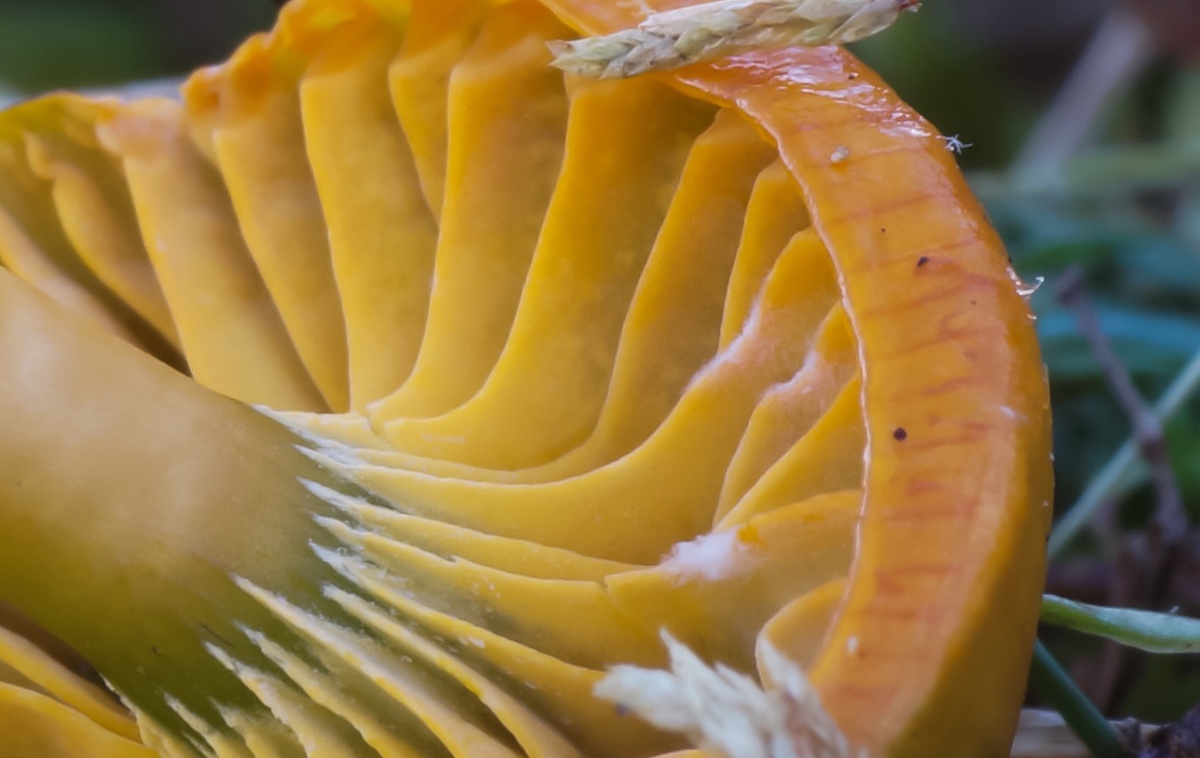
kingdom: Fungi
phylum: Basidiomycota
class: Agaricomycetes
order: Agaricales
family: Hygrophoraceae
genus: Gliophorus
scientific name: Gliophorus psittacinus
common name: papegøje-vokshat
